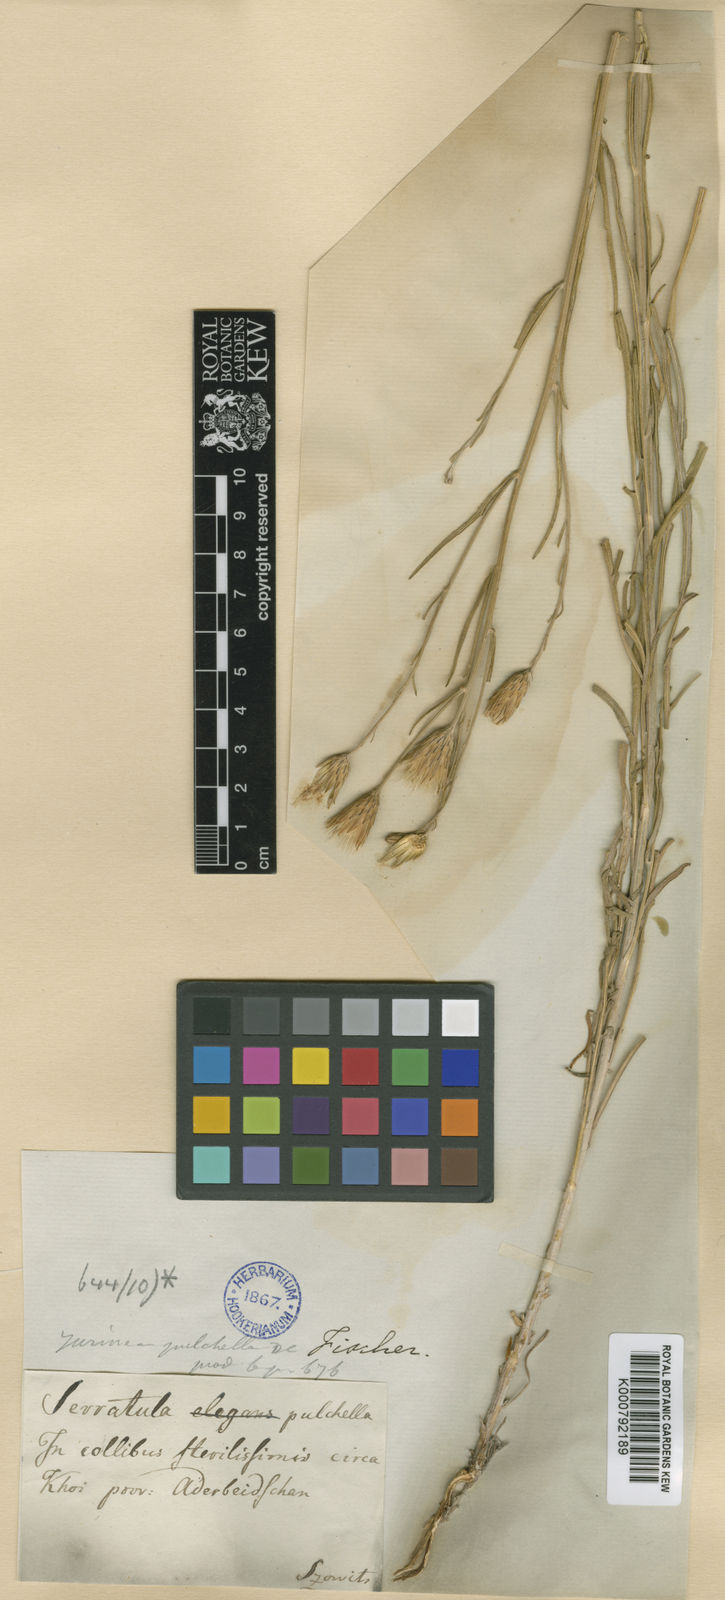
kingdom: Plantae
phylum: Tracheophyta
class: Magnoliopsida
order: Asterales
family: Asteraceae
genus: Jurinea
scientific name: Jurinea pulchella
